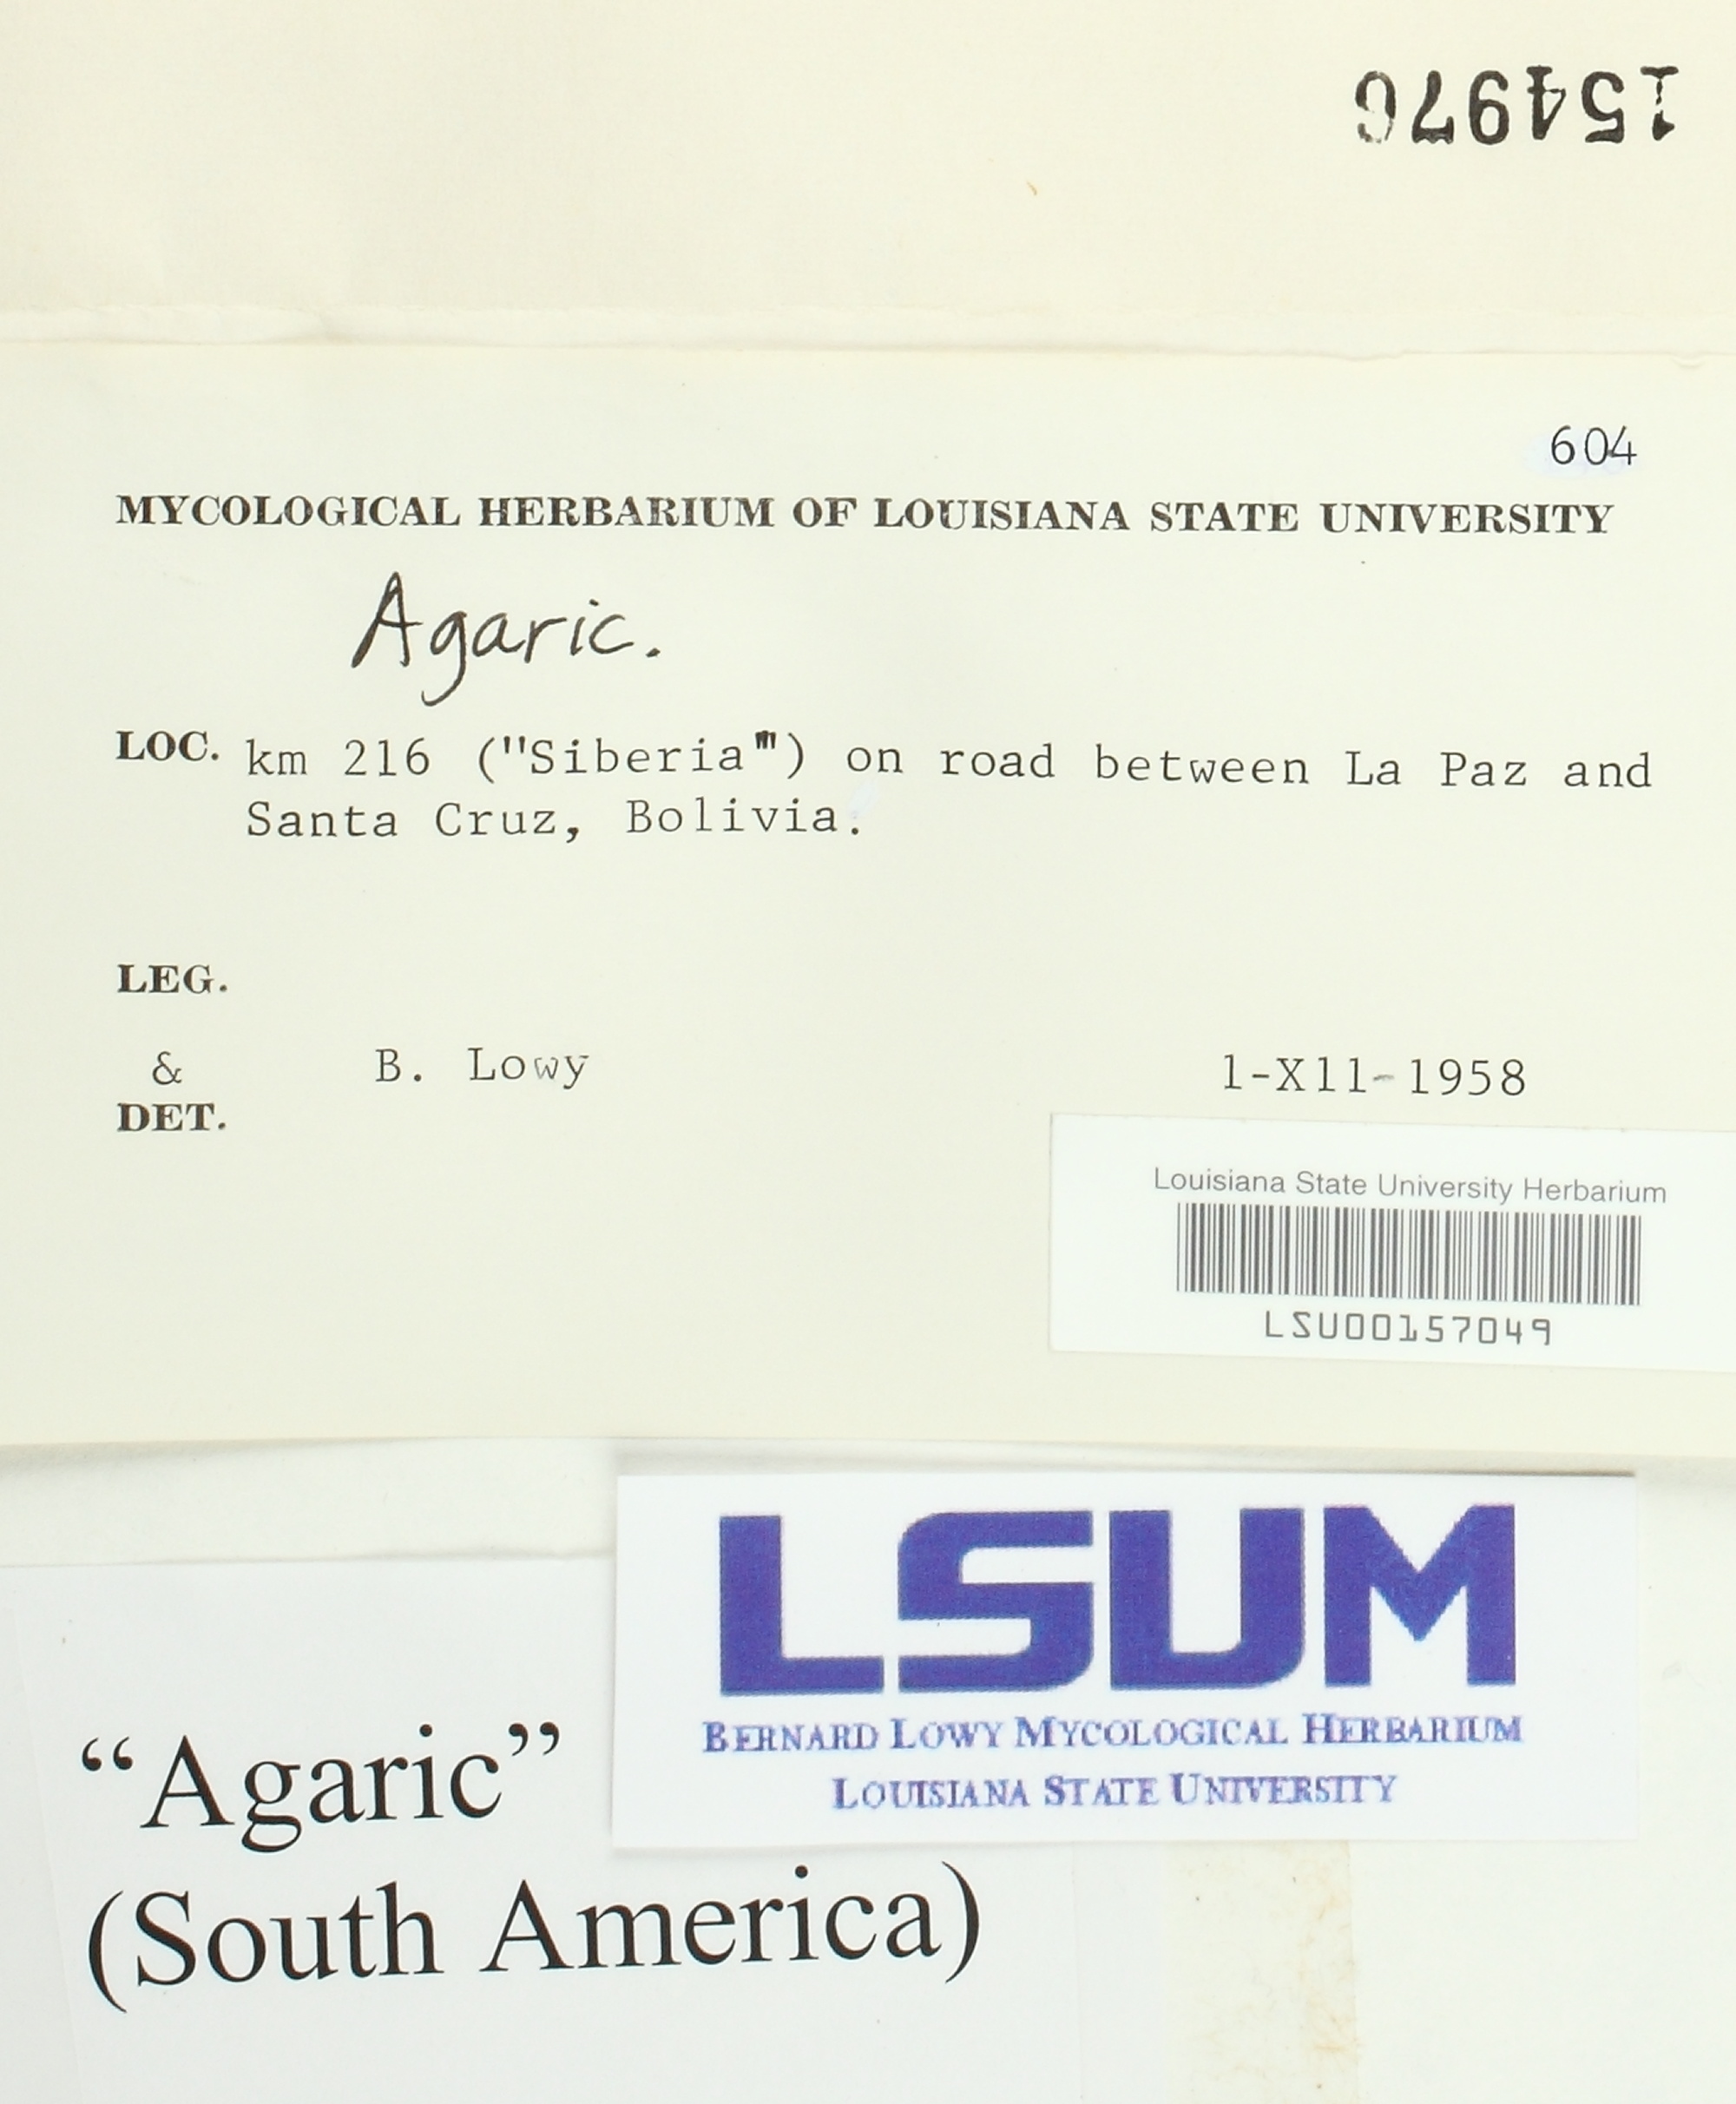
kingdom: Fungi
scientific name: Fungi
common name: Fungi
